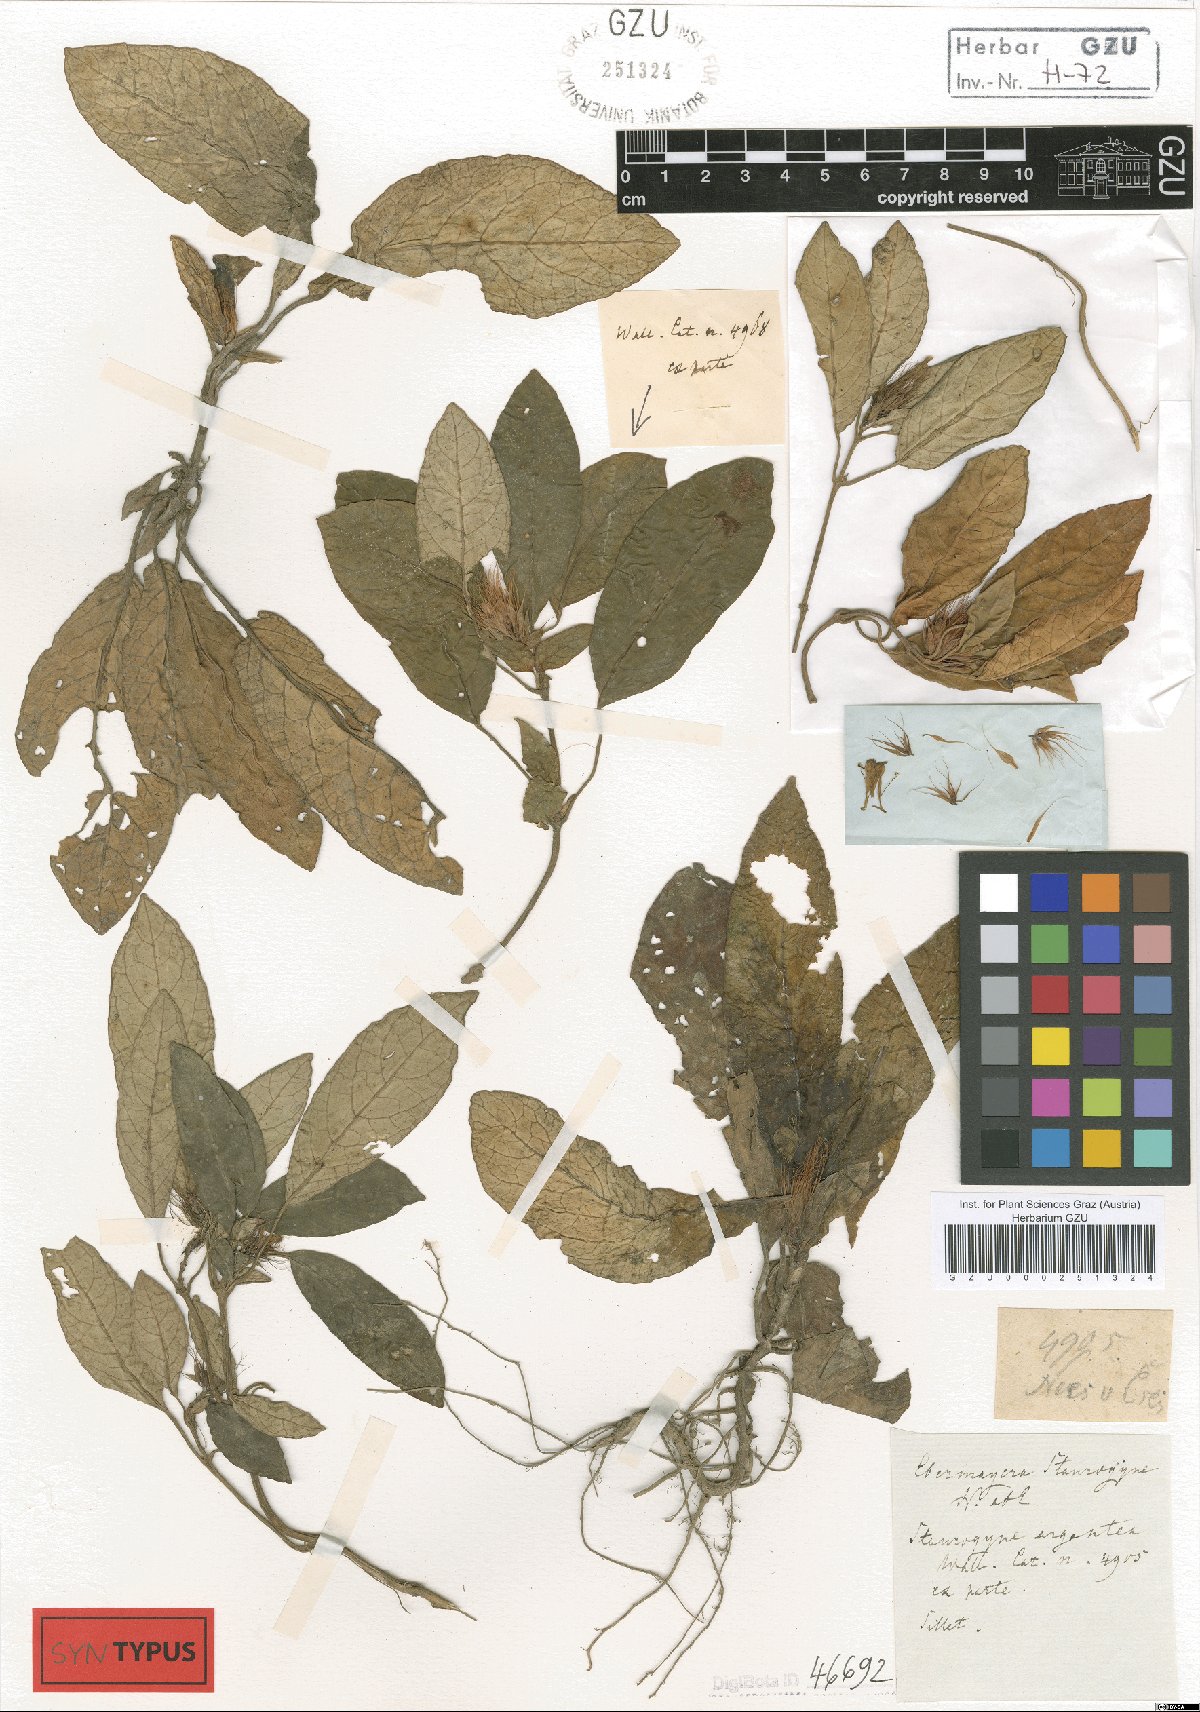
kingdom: Plantae
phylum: Tracheophyta
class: Magnoliopsida
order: Lamiales
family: Acanthaceae
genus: Staurogyne
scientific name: Staurogyne argentea
